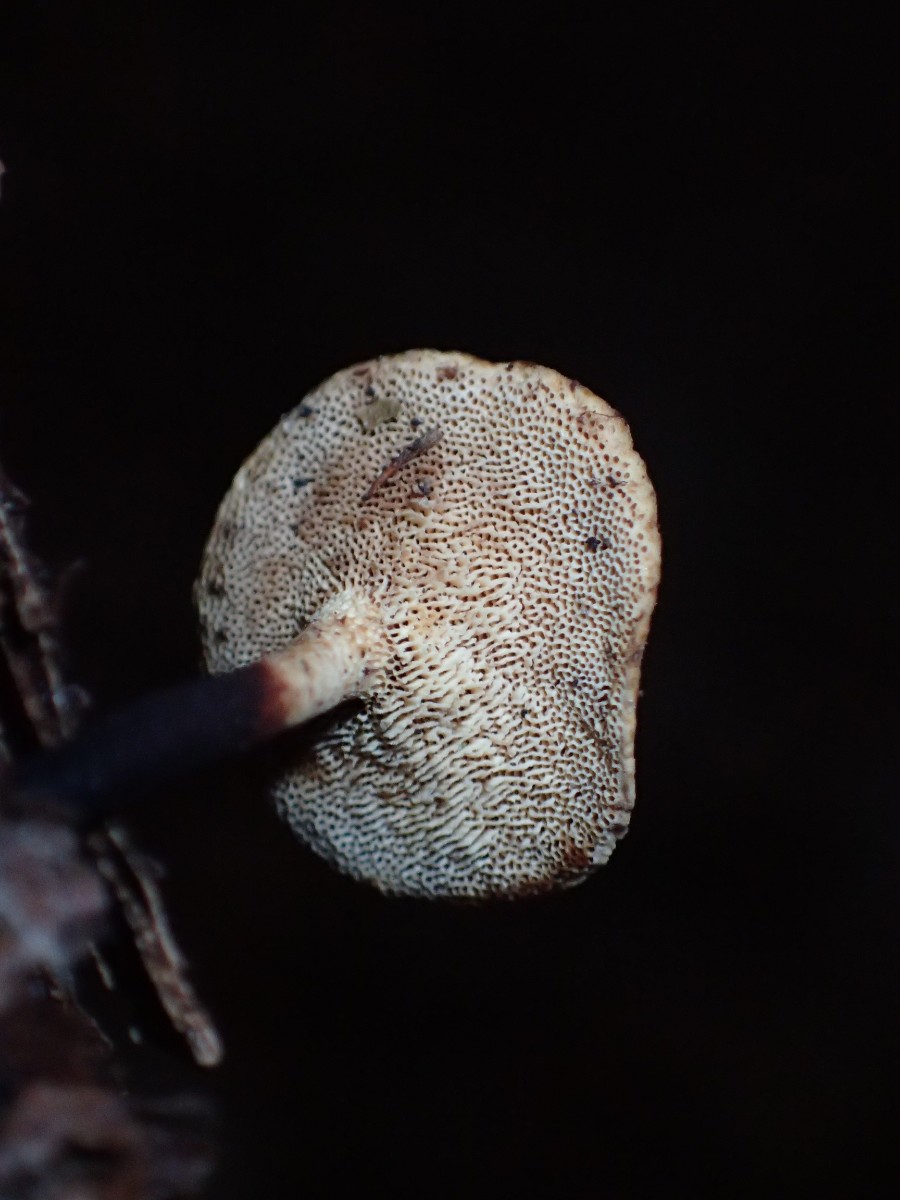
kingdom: Fungi
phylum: Basidiomycota
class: Agaricomycetes
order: Polyporales
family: Polyporaceae
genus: Cerioporus
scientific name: Cerioporus varius
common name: foranderlig stilkporesvamp
